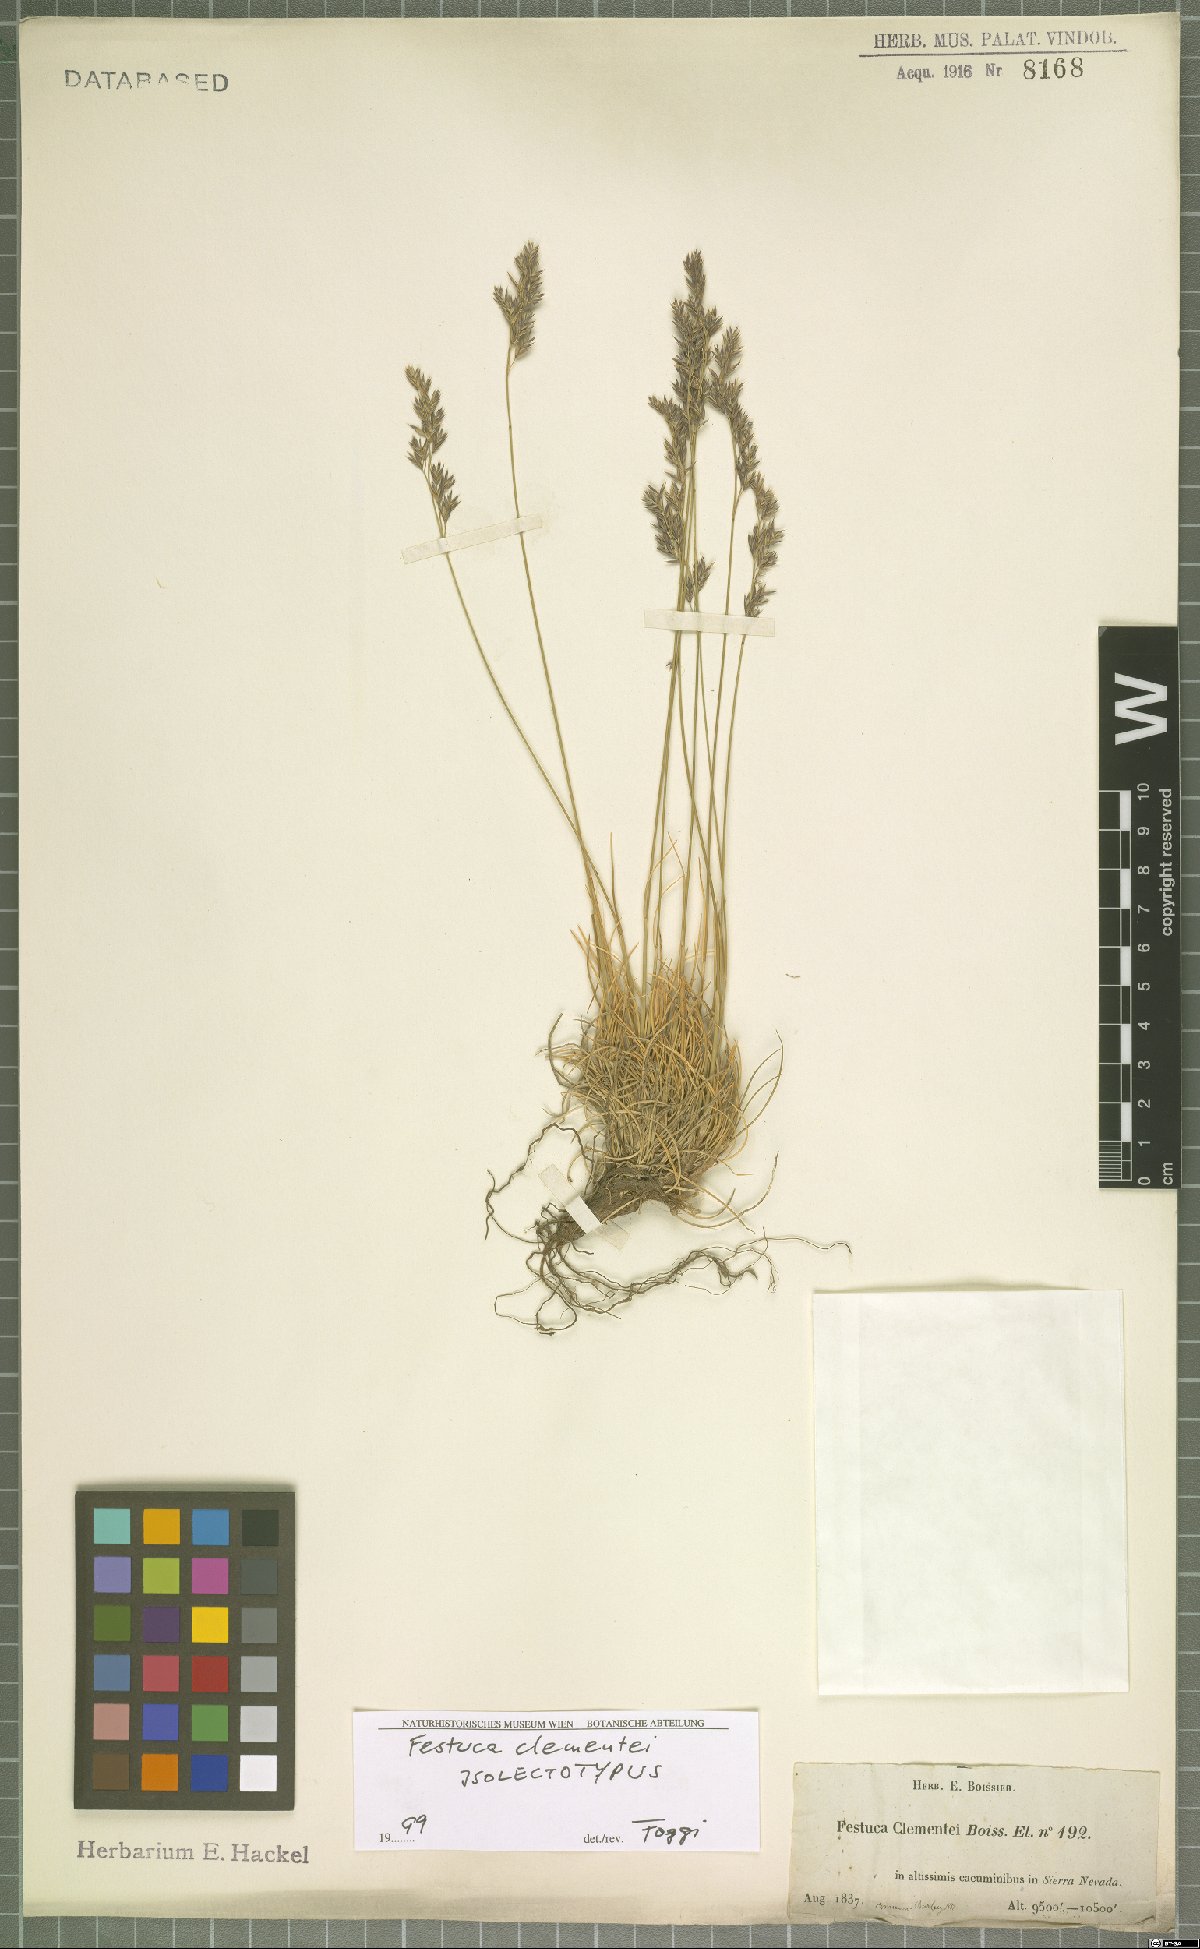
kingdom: Plantae
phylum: Tracheophyta
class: Liliopsida
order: Poales
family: Poaceae
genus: Festuca
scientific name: Festuca clementei
